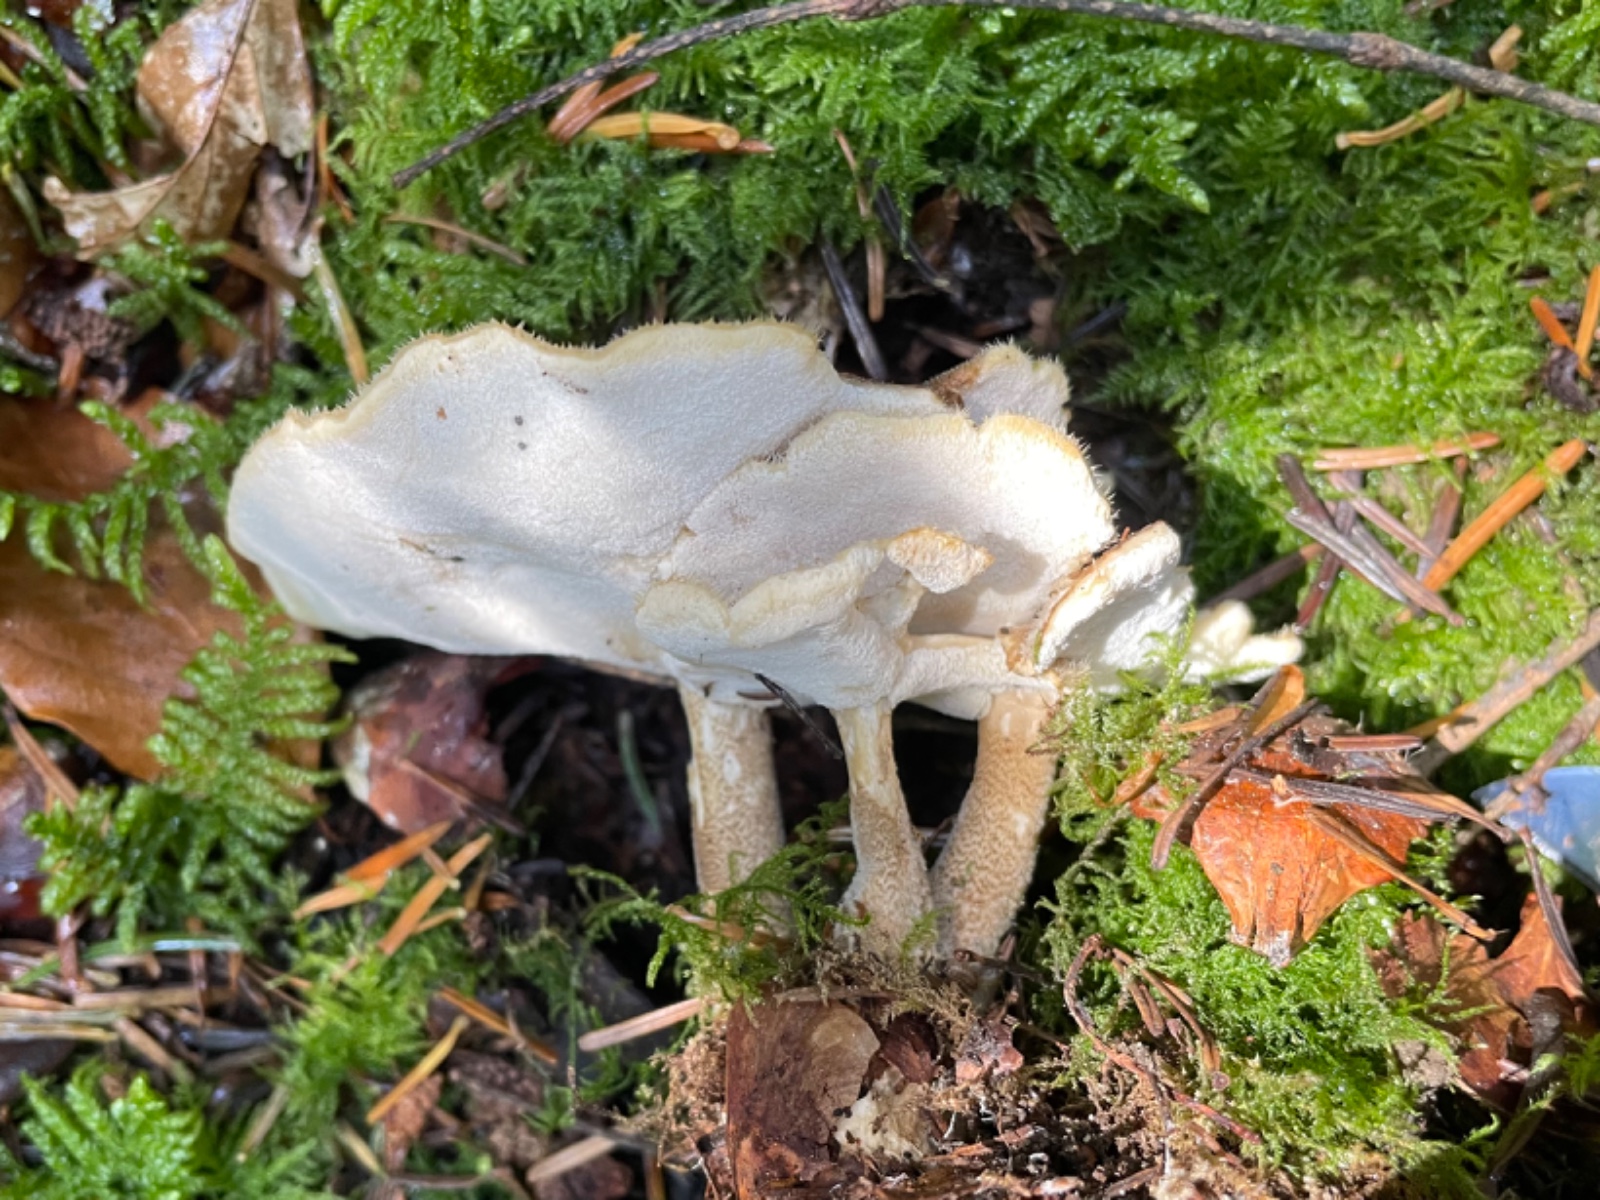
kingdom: Fungi
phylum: Basidiomycota
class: Agaricomycetes
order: Polyporales
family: Polyporaceae
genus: Lentinus
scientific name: Lentinus substrictus
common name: forårs-stilkporesvamp
